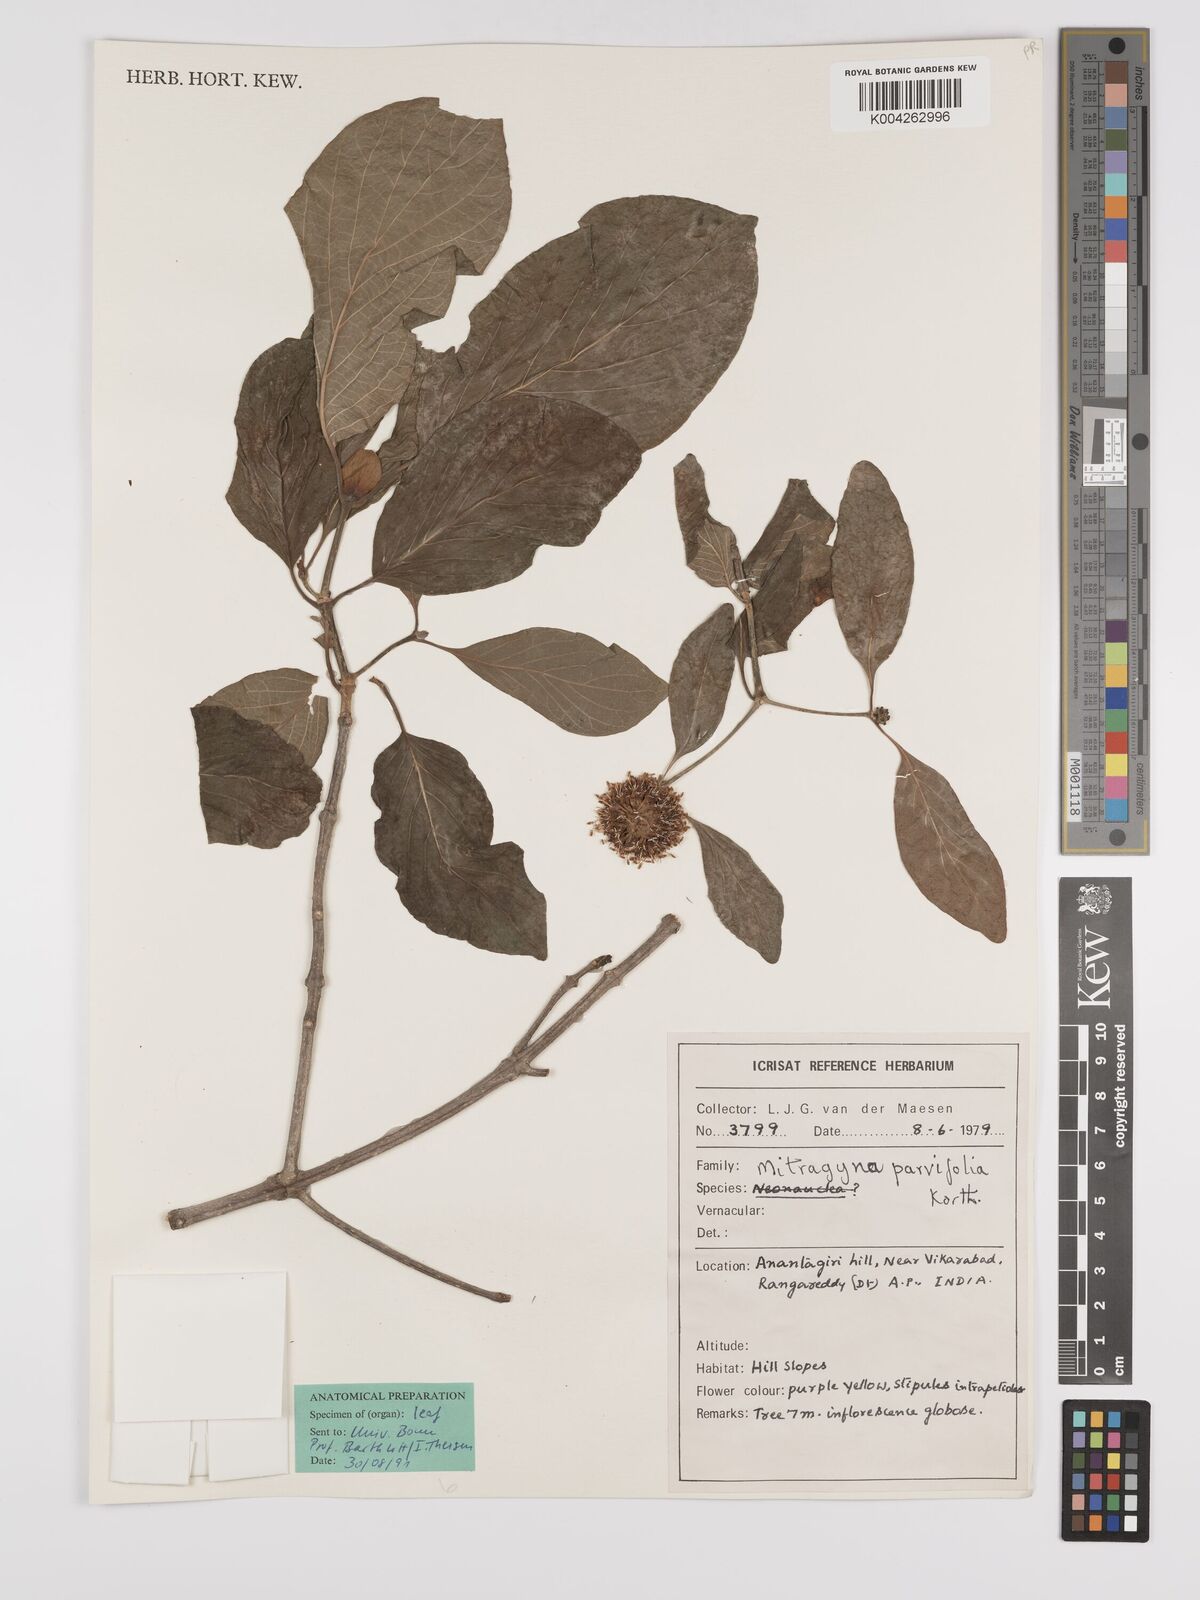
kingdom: Plantae
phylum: Tracheophyta
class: Magnoliopsida
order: Gentianales
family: Rubiaceae
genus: Mitragyna
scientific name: Mitragyna parvifolia
